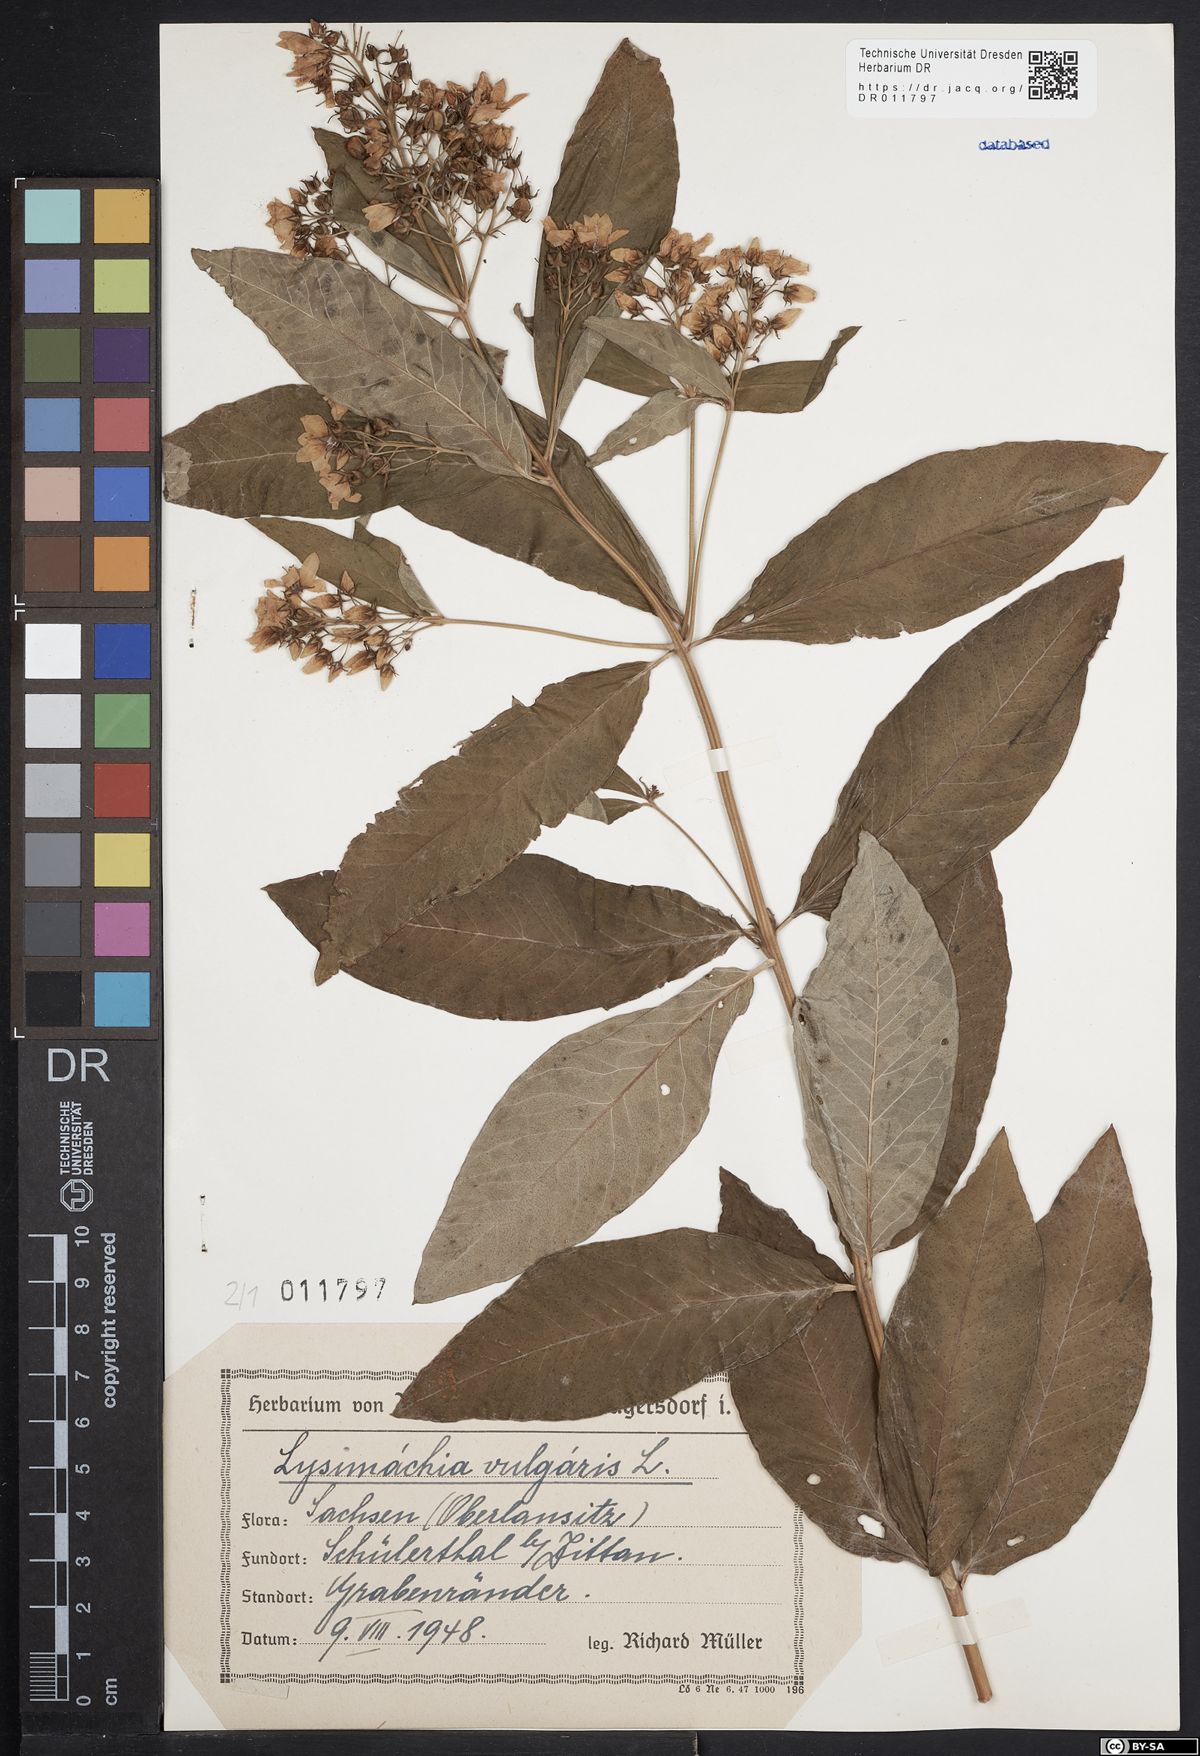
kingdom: Plantae
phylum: Tracheophyta
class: Magnoliopsida
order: Ericales
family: Primulaceae
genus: Lysimachia
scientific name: Lysimachia vulgaris
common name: Yellow loosestrife
